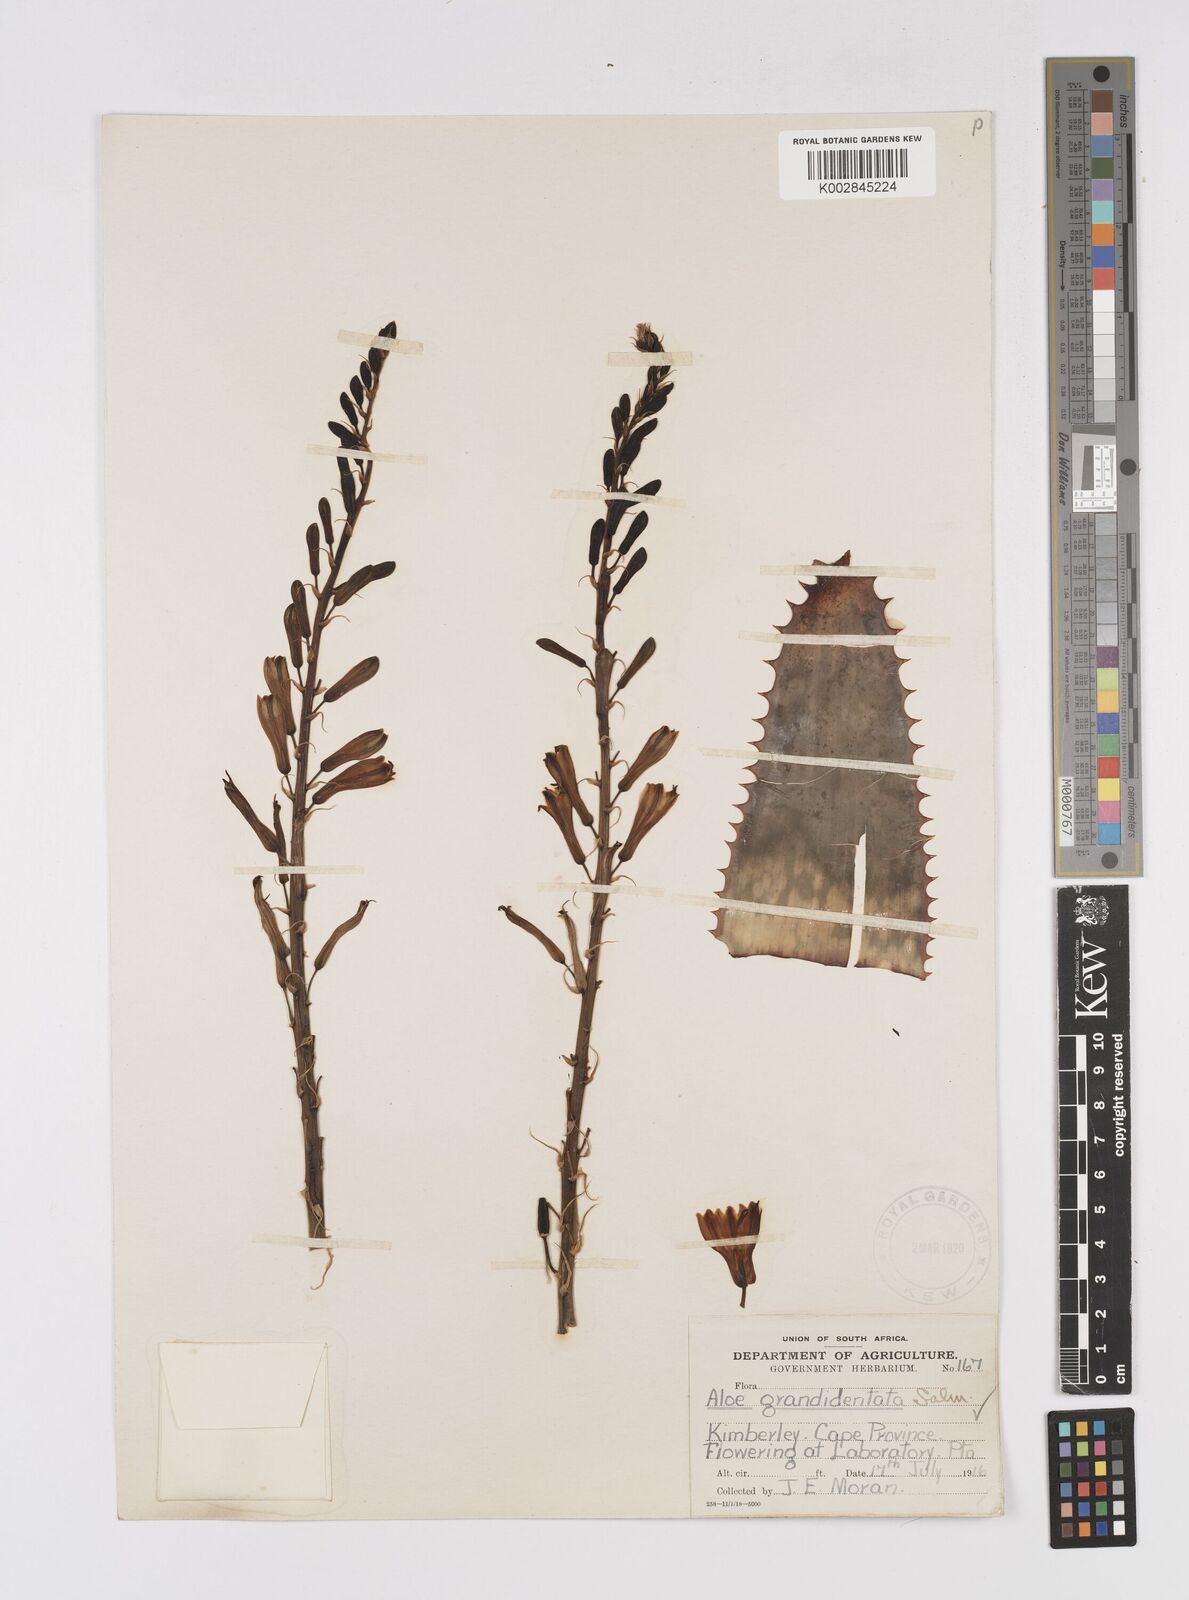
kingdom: Plantae
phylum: Tracheophyta
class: Liliopsida
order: Asparagales
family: Asphodelaceae
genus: Aloe
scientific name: Aloe grandidentata
